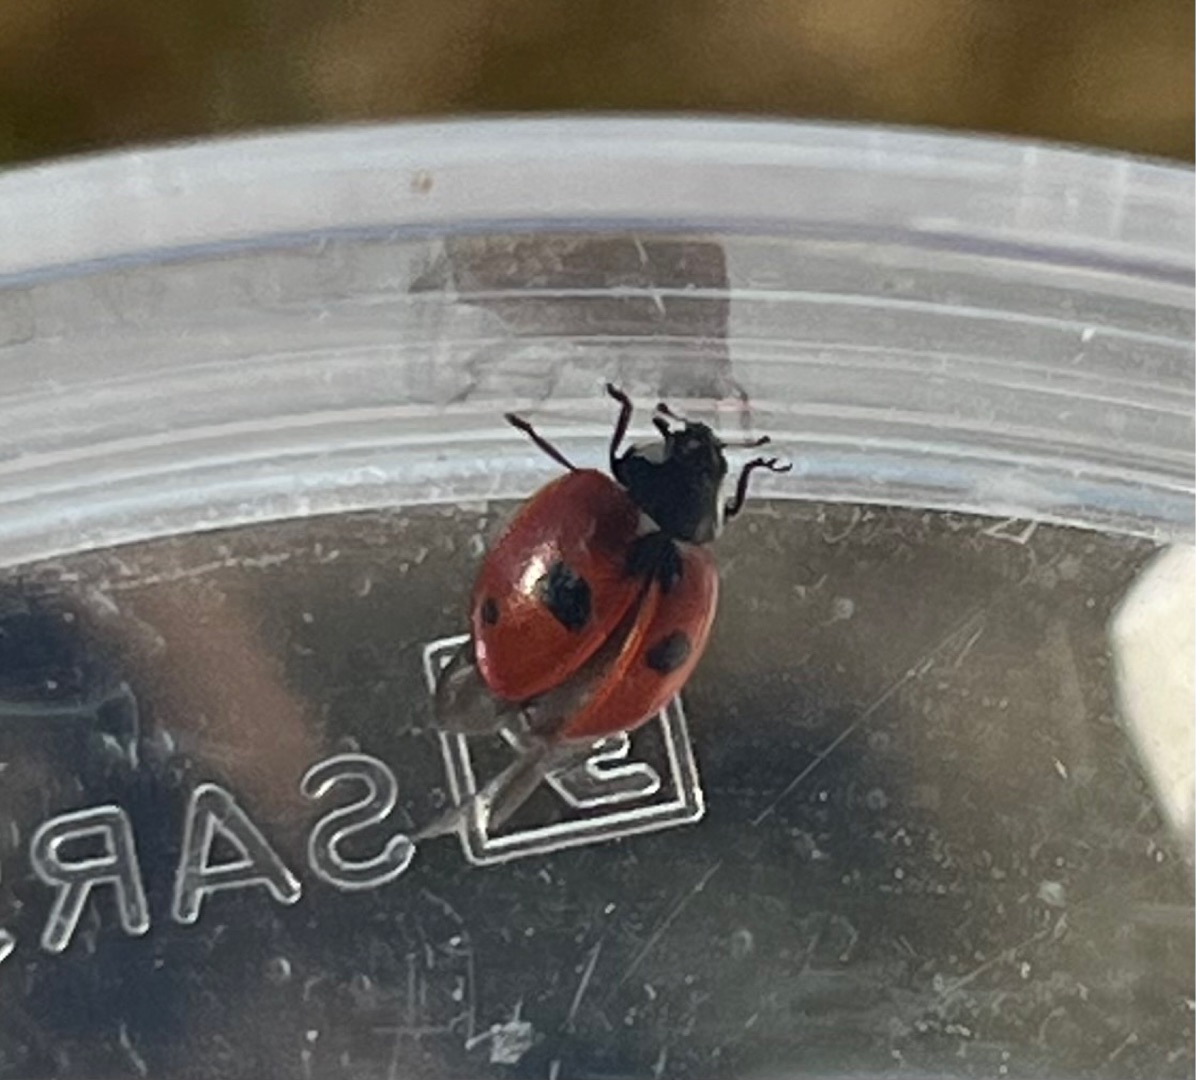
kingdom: Animalia
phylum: Arthropoda
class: Insecta
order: Coleoptera
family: Coccinellidae
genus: Coccinella
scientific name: Coccinella quinquepunctata
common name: Femplettet mariehøne
